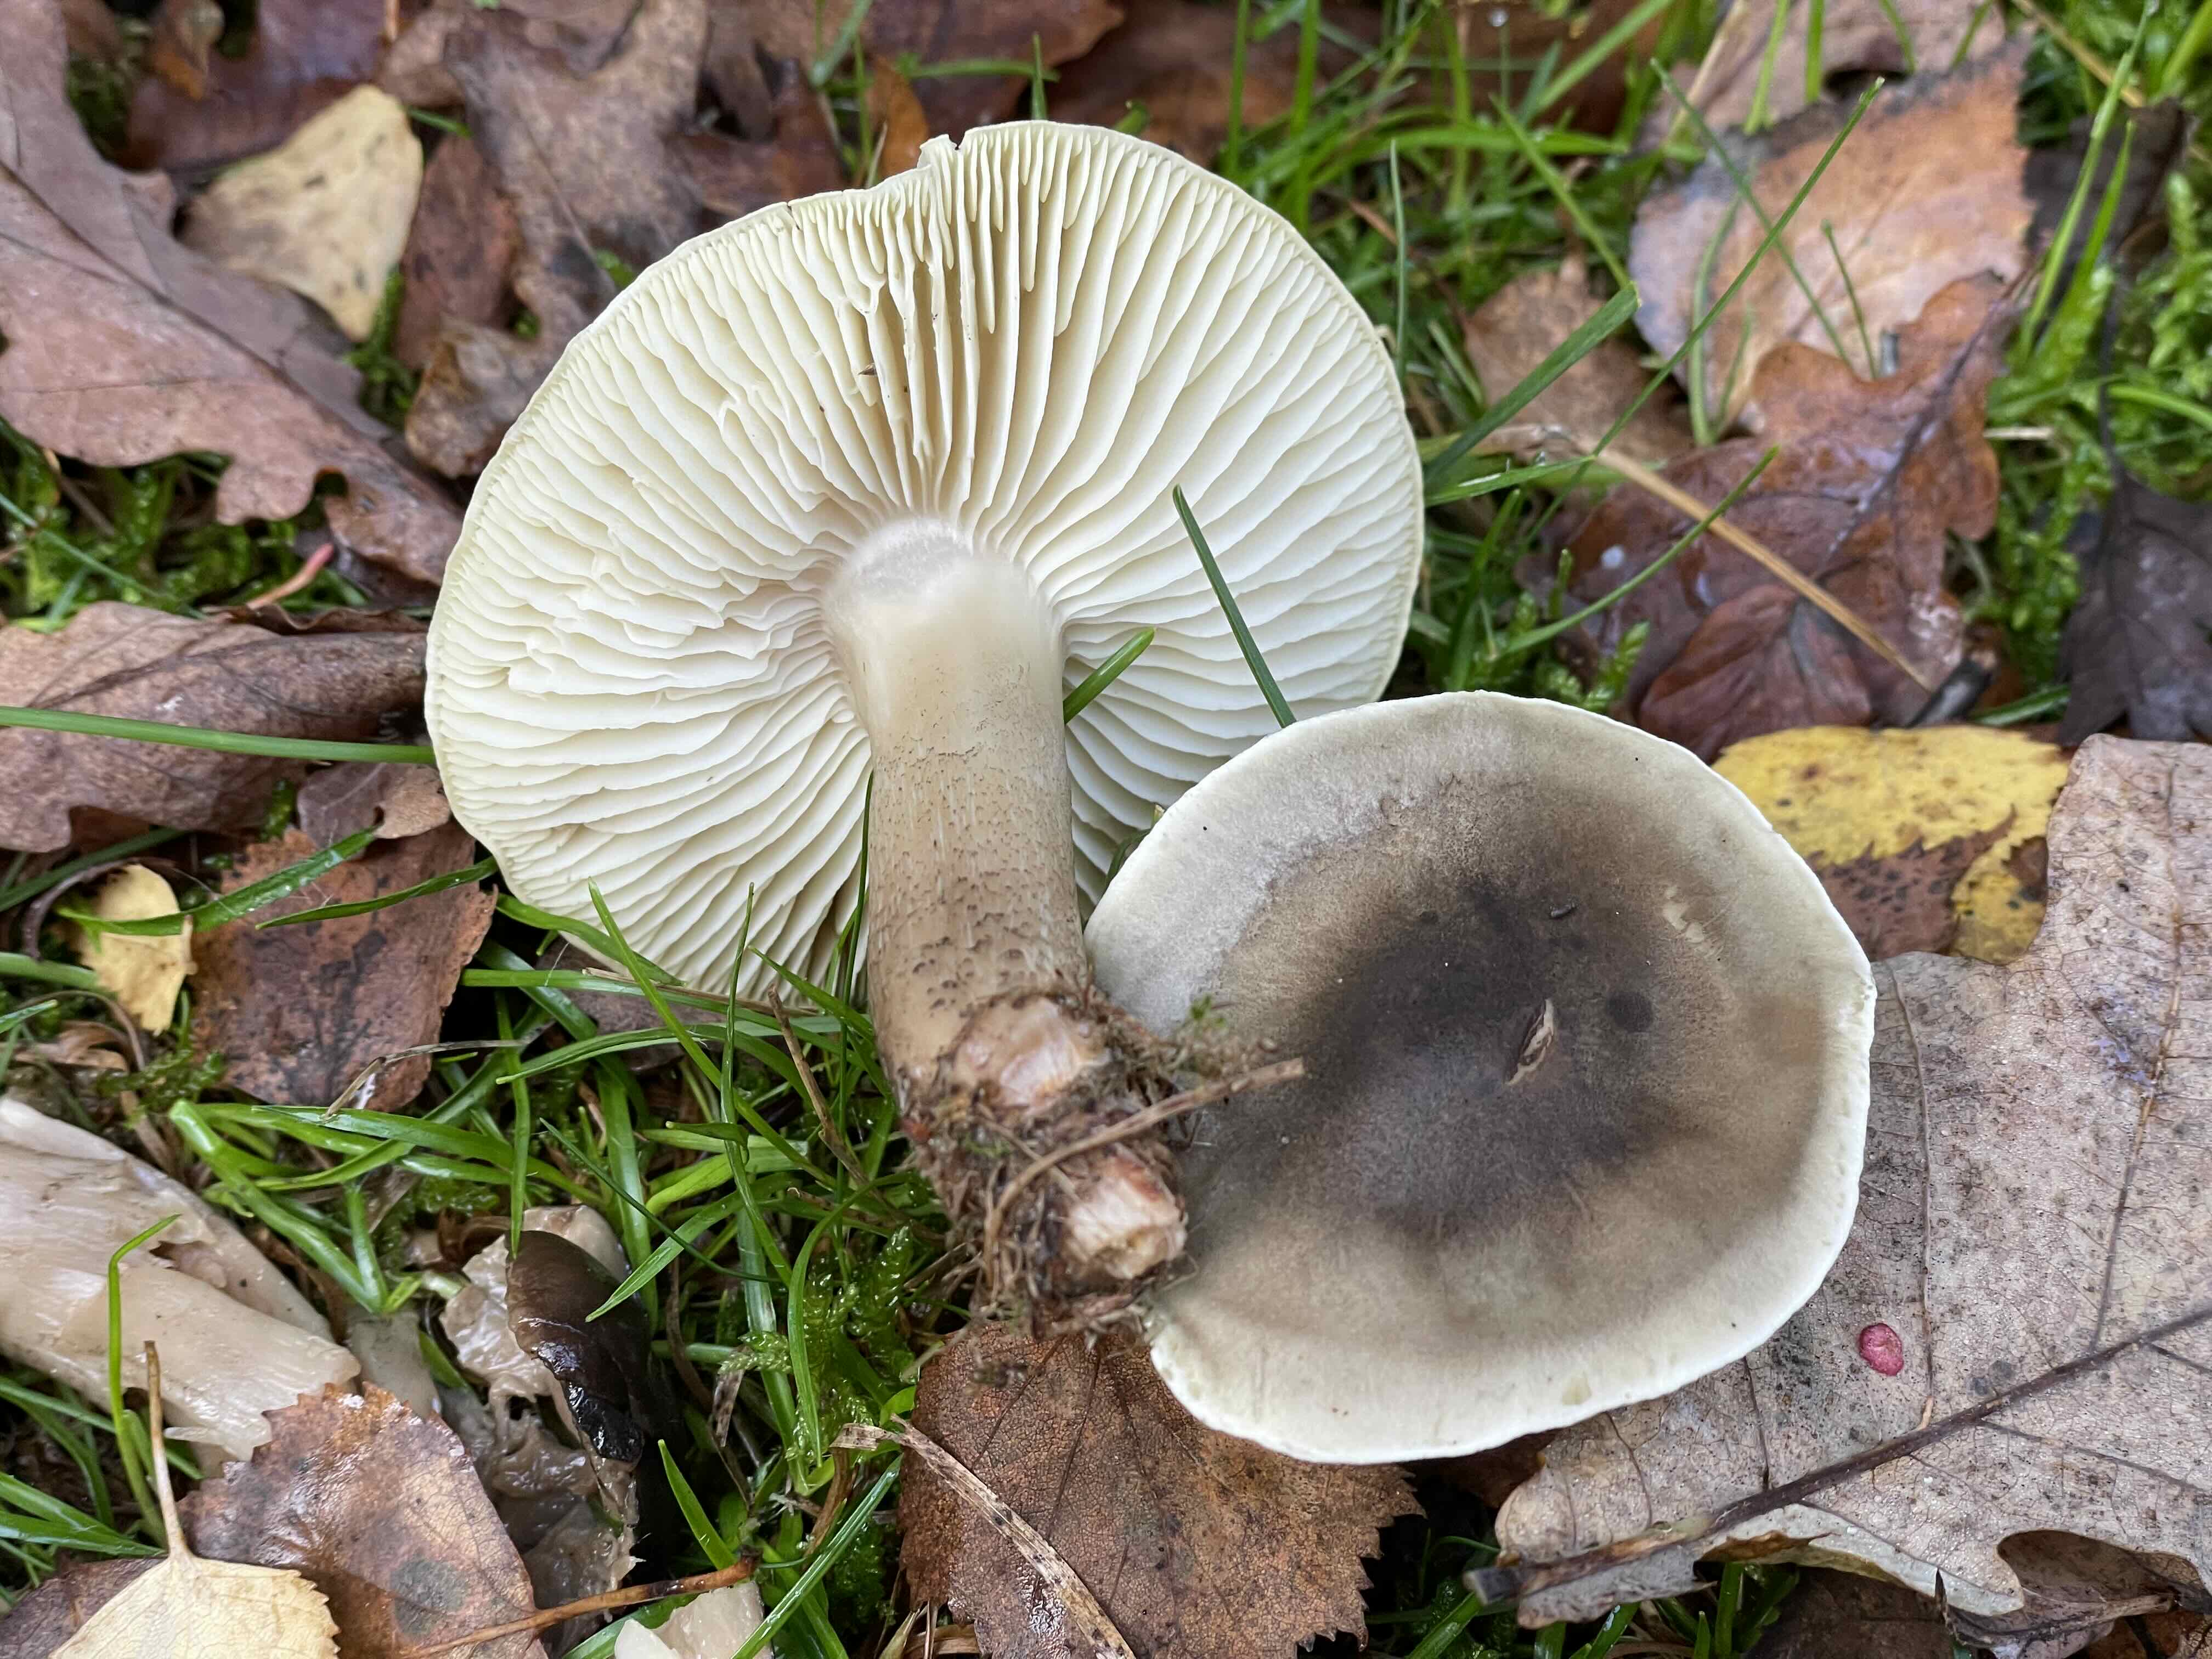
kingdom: Fungi
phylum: Basidiomycota
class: Agaricomycetes
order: Agaricales
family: Tricholomataceae
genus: Tricholoma
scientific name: Tricholoma saponaceum
